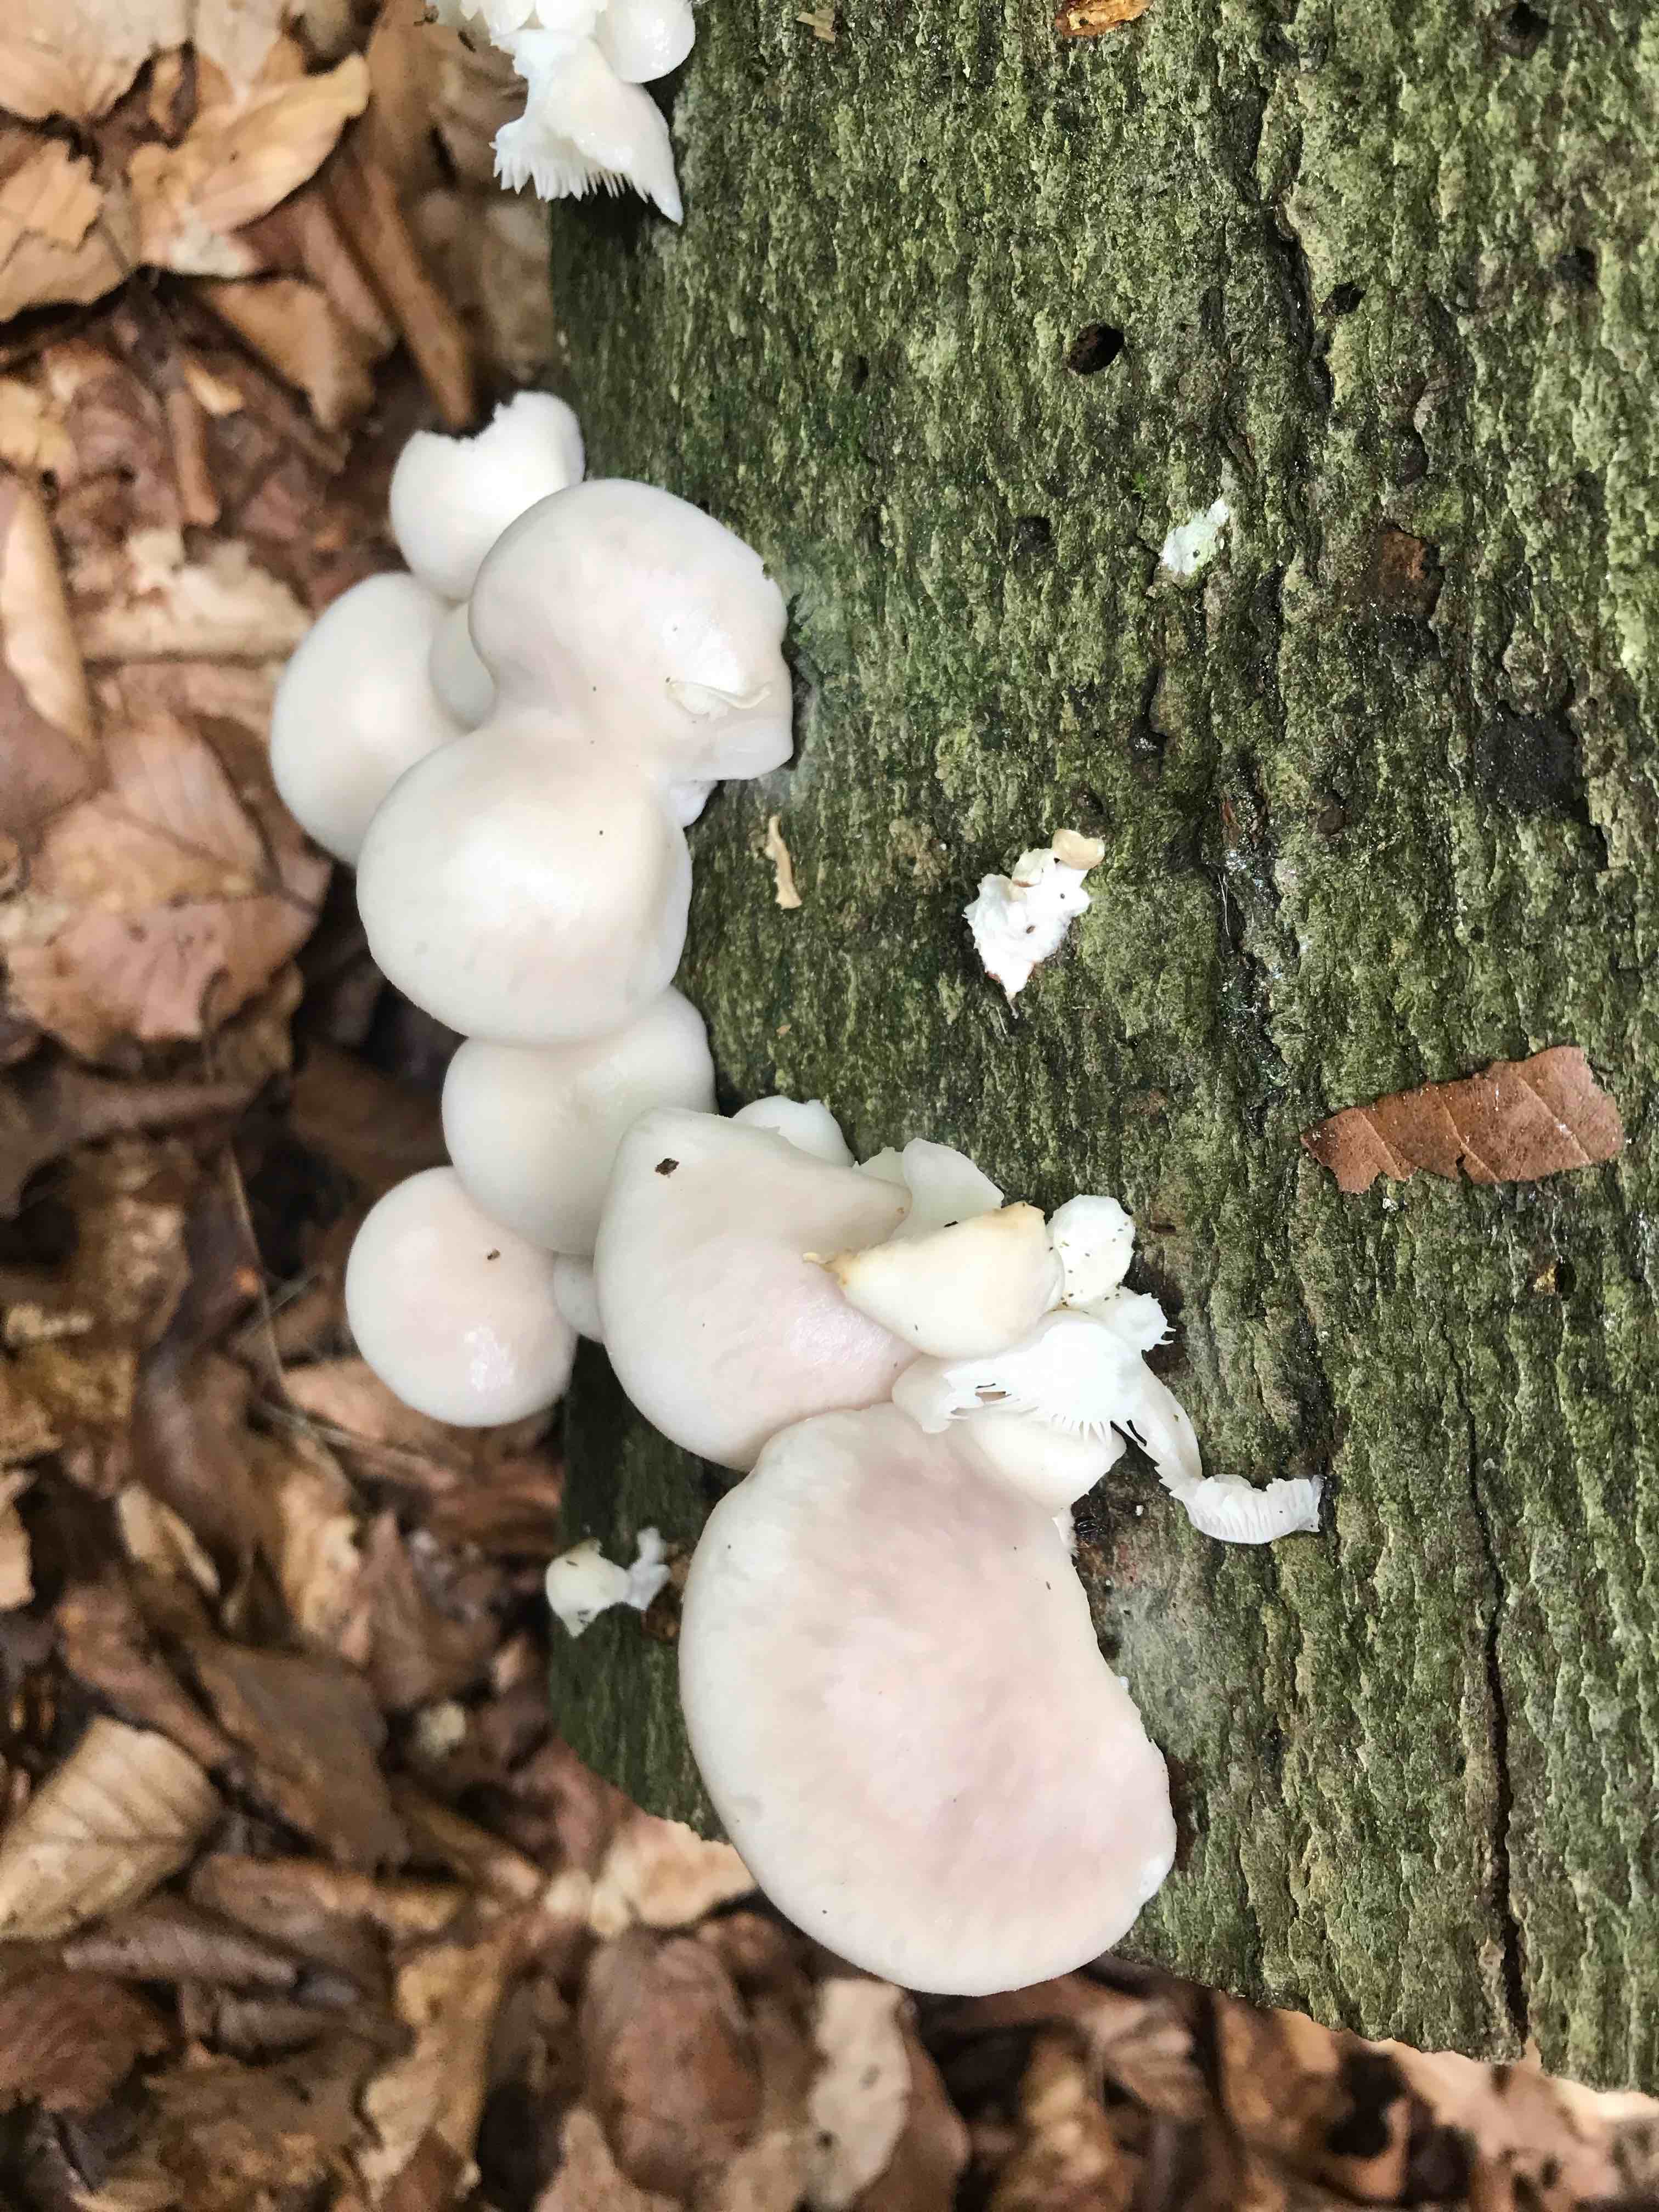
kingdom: Fungi
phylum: Basidiomycota
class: Agaricomycetes
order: Agaricales
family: Pleurotaceae
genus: Pleurotus
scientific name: Pleurotus pulmonarius
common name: sommer-østershat
